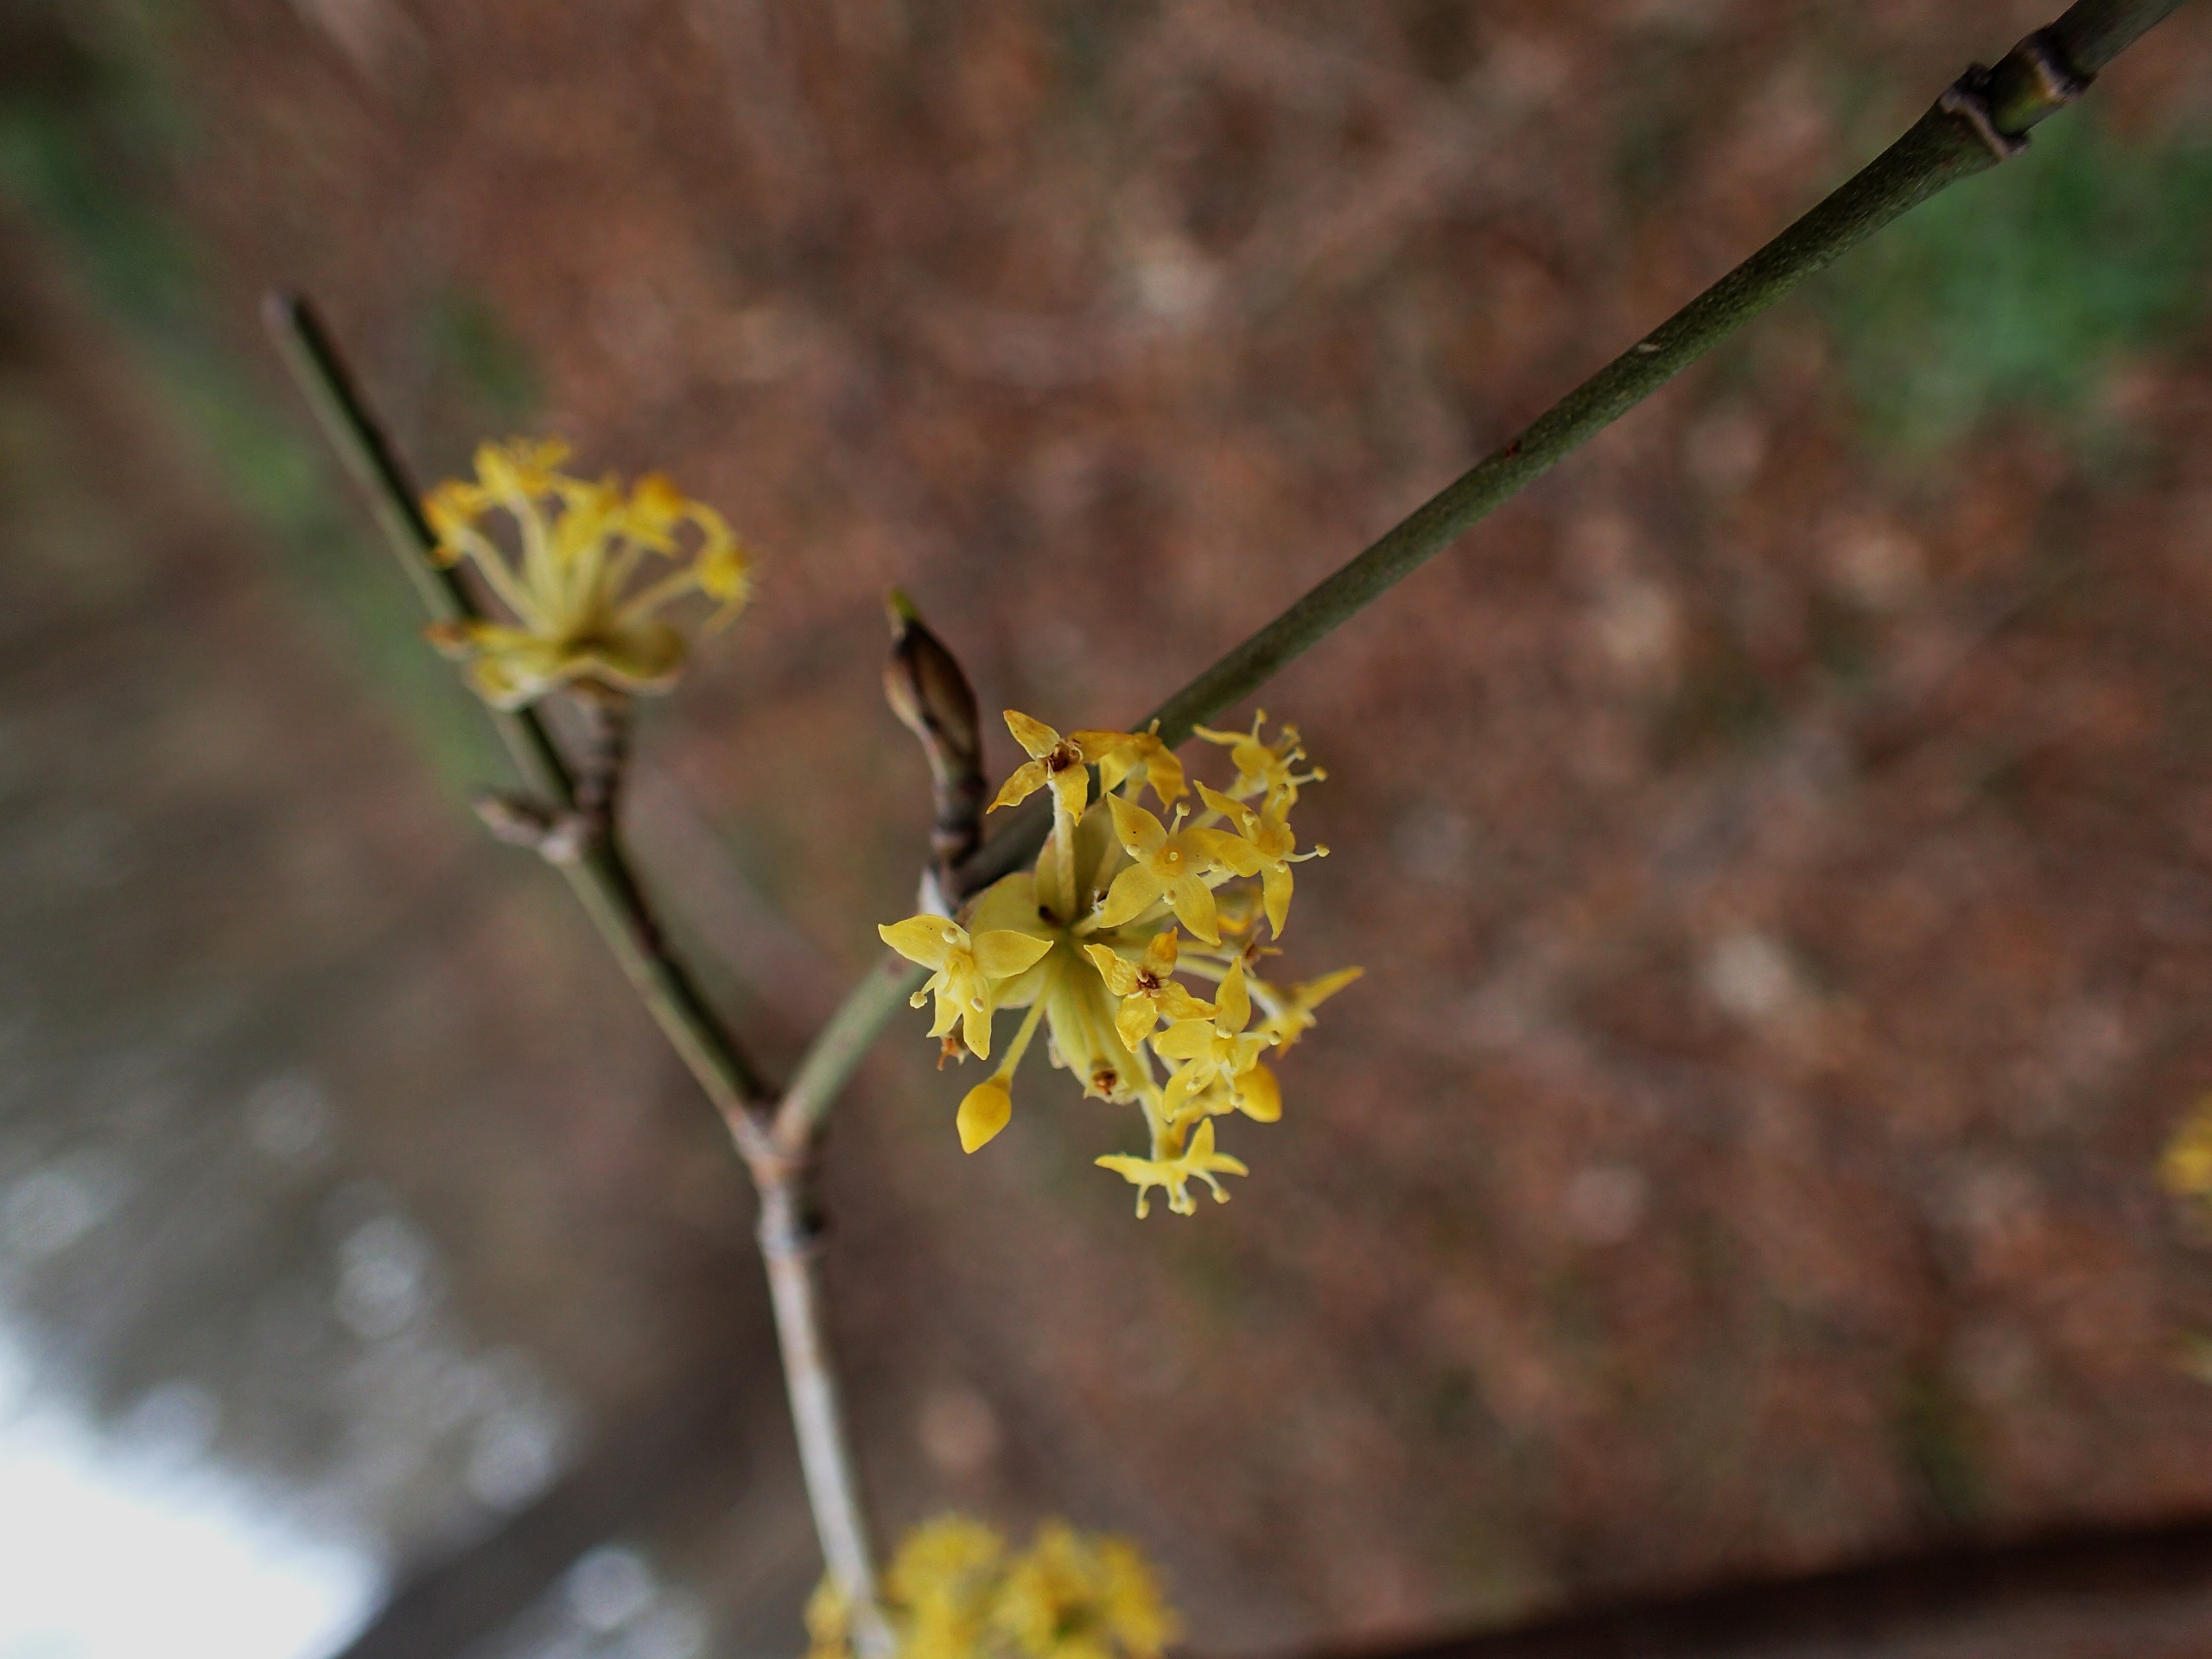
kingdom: Plantae
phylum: Tracheophyta
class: Magnoliopsida
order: Cornales
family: Cornaceae
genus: Cornus
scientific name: Cornus mas
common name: Kirsebær-kornel
